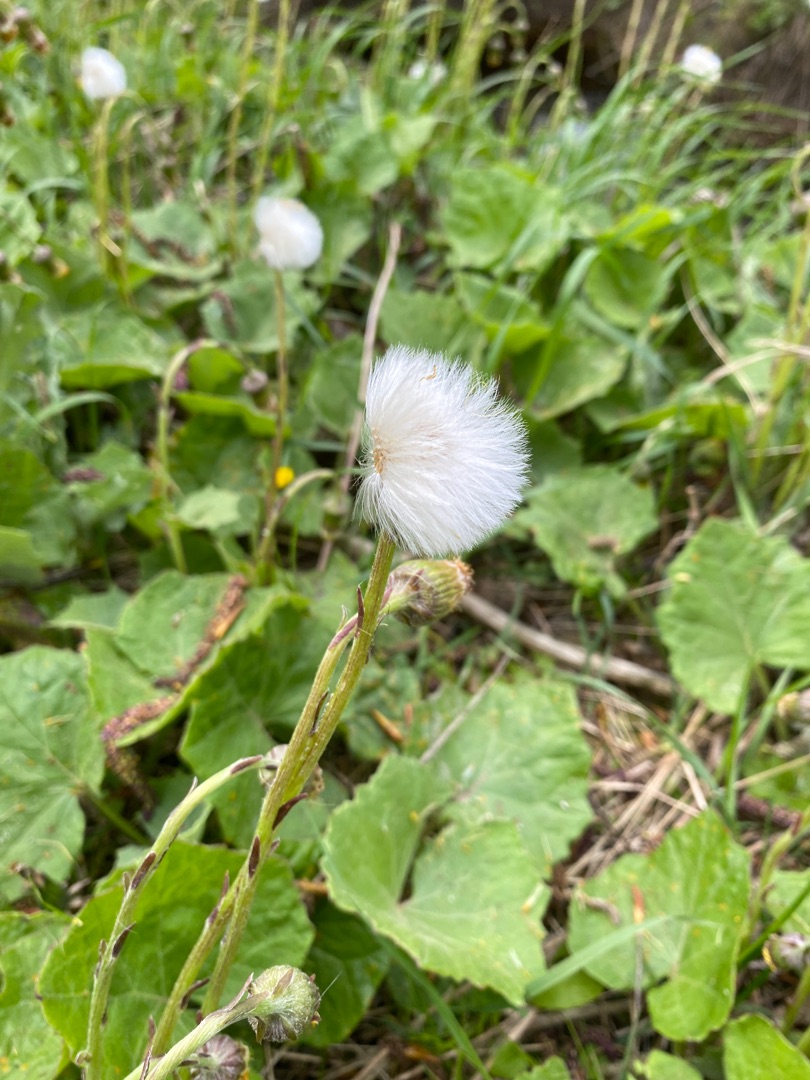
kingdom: Plantae
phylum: Tracheophyta
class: Magnoliopsida
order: Asterales
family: Asteraceae
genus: Tussilago
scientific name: Tussilago farfara
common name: Følfod
